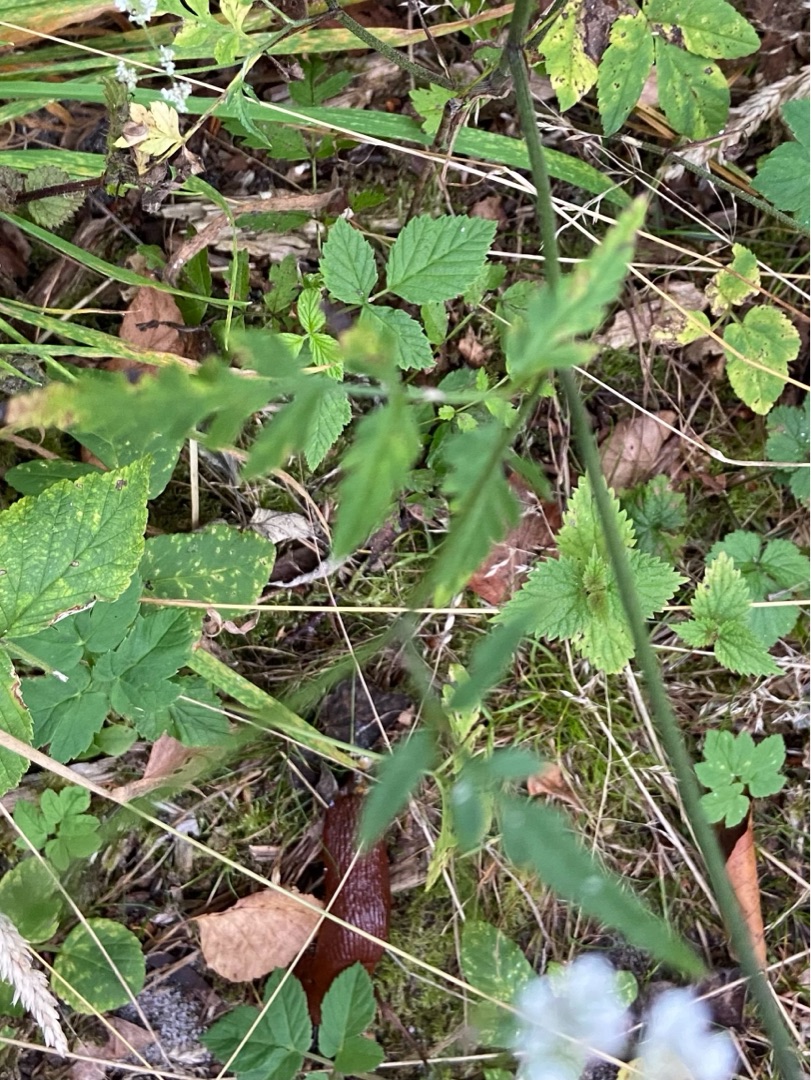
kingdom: Plantae
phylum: Tracheophyta
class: Magnoliopsida
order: Apiales
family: Apiaceae
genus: Torilis
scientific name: Torilis japonica
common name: Hvas randfrø
